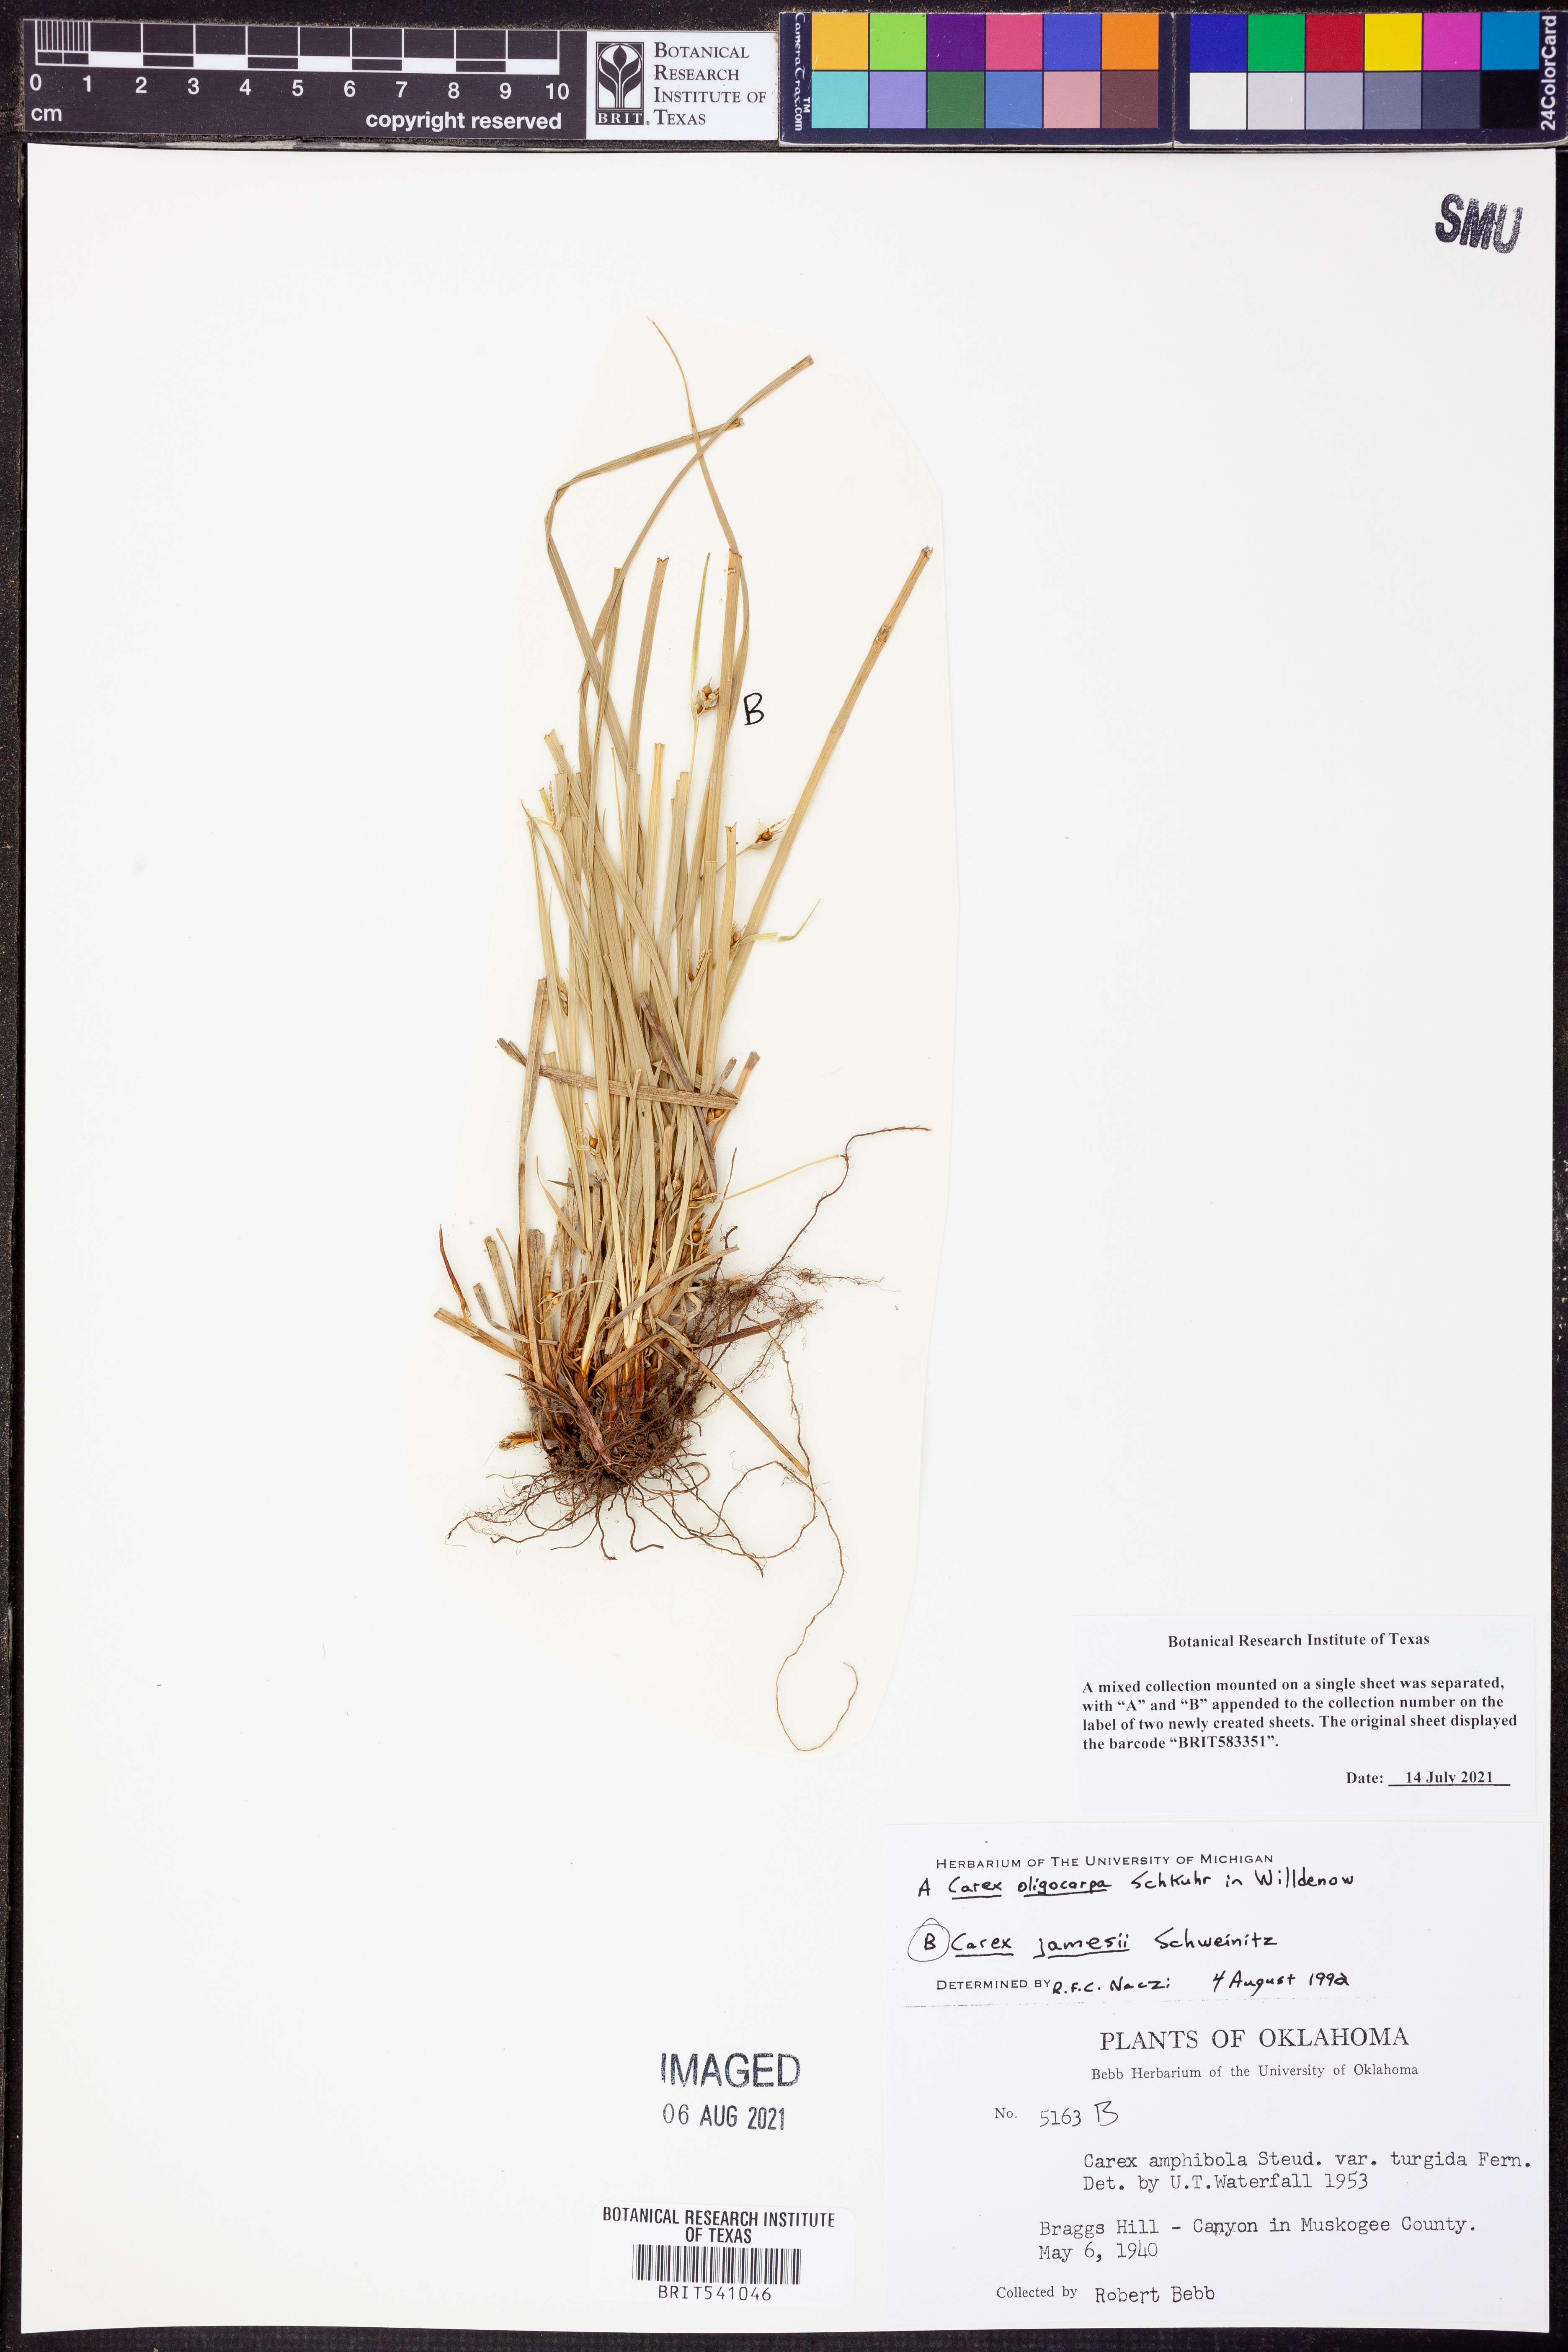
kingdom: Plantae
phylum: Tracheophyta
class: Liliopsida
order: Poales
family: Cyperaceae
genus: Carex
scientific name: Carex jamesii
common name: Grass sedge
